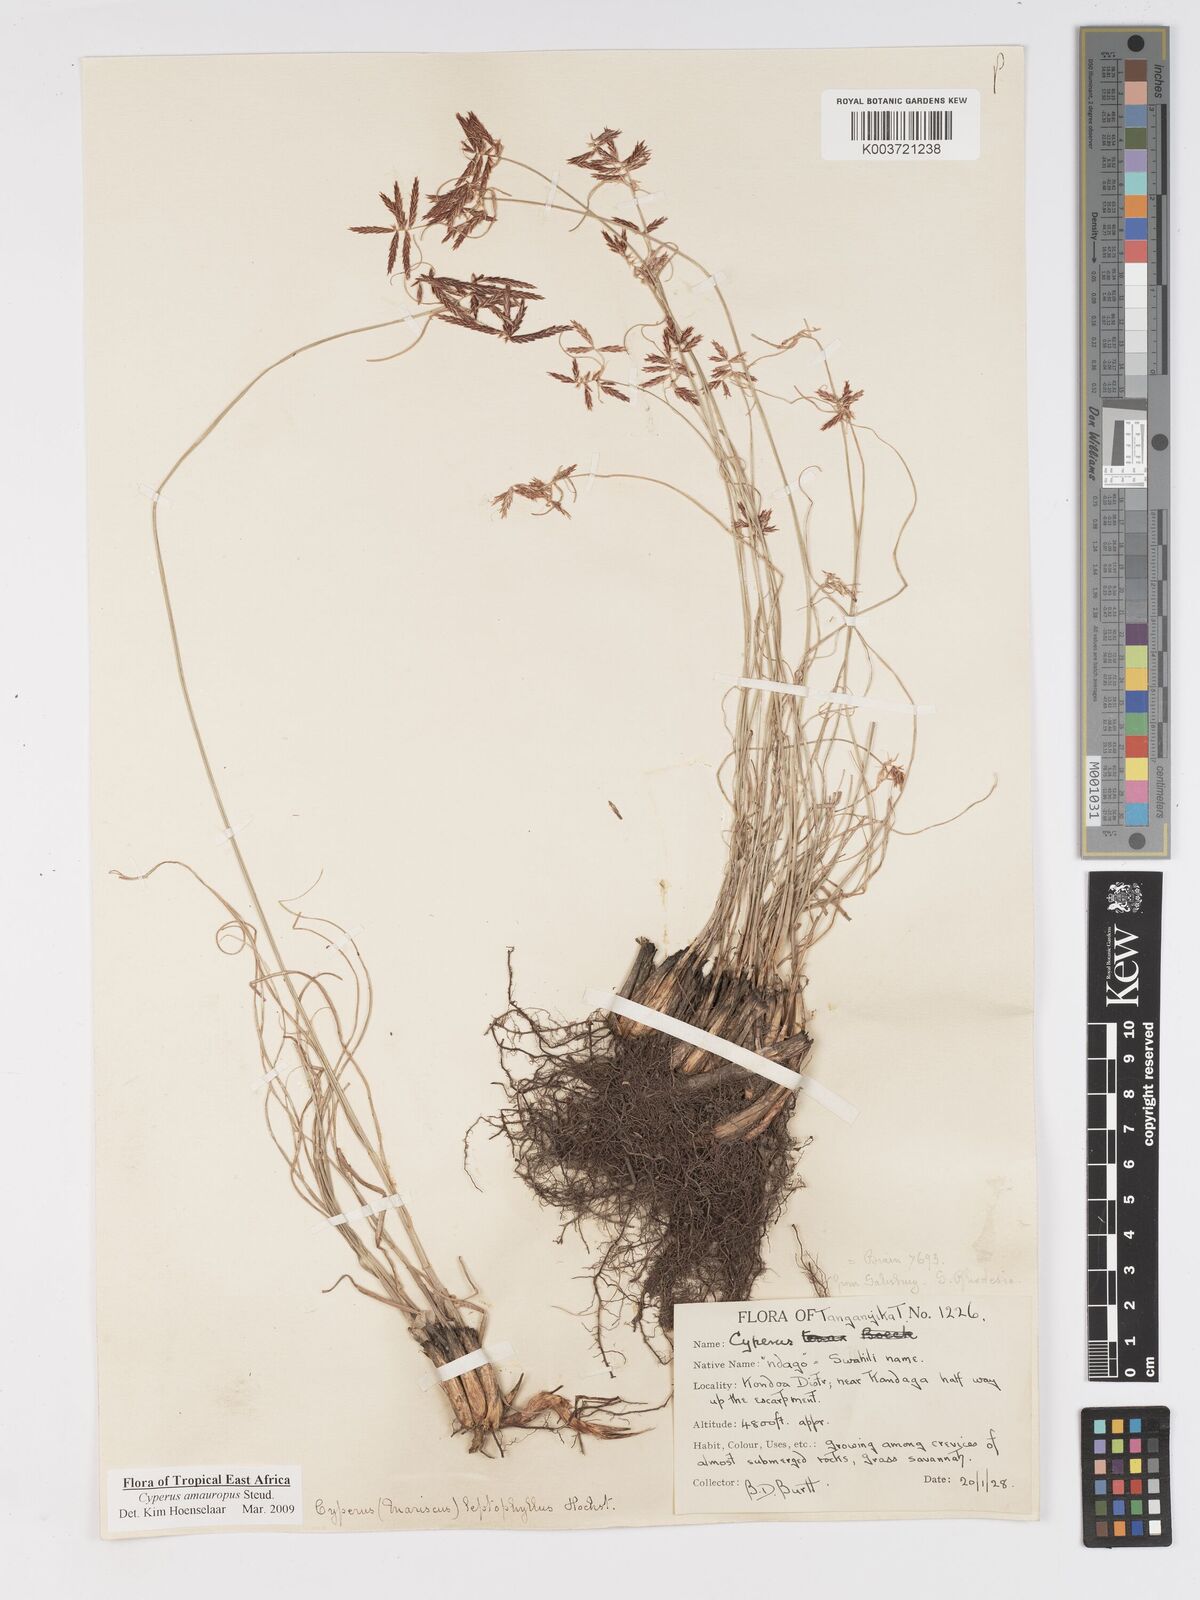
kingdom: Plantae
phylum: Tracheophyta
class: Liliopsida
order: Poales
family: Cyperaceae
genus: Cyperus
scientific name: Cyperus amauropus
